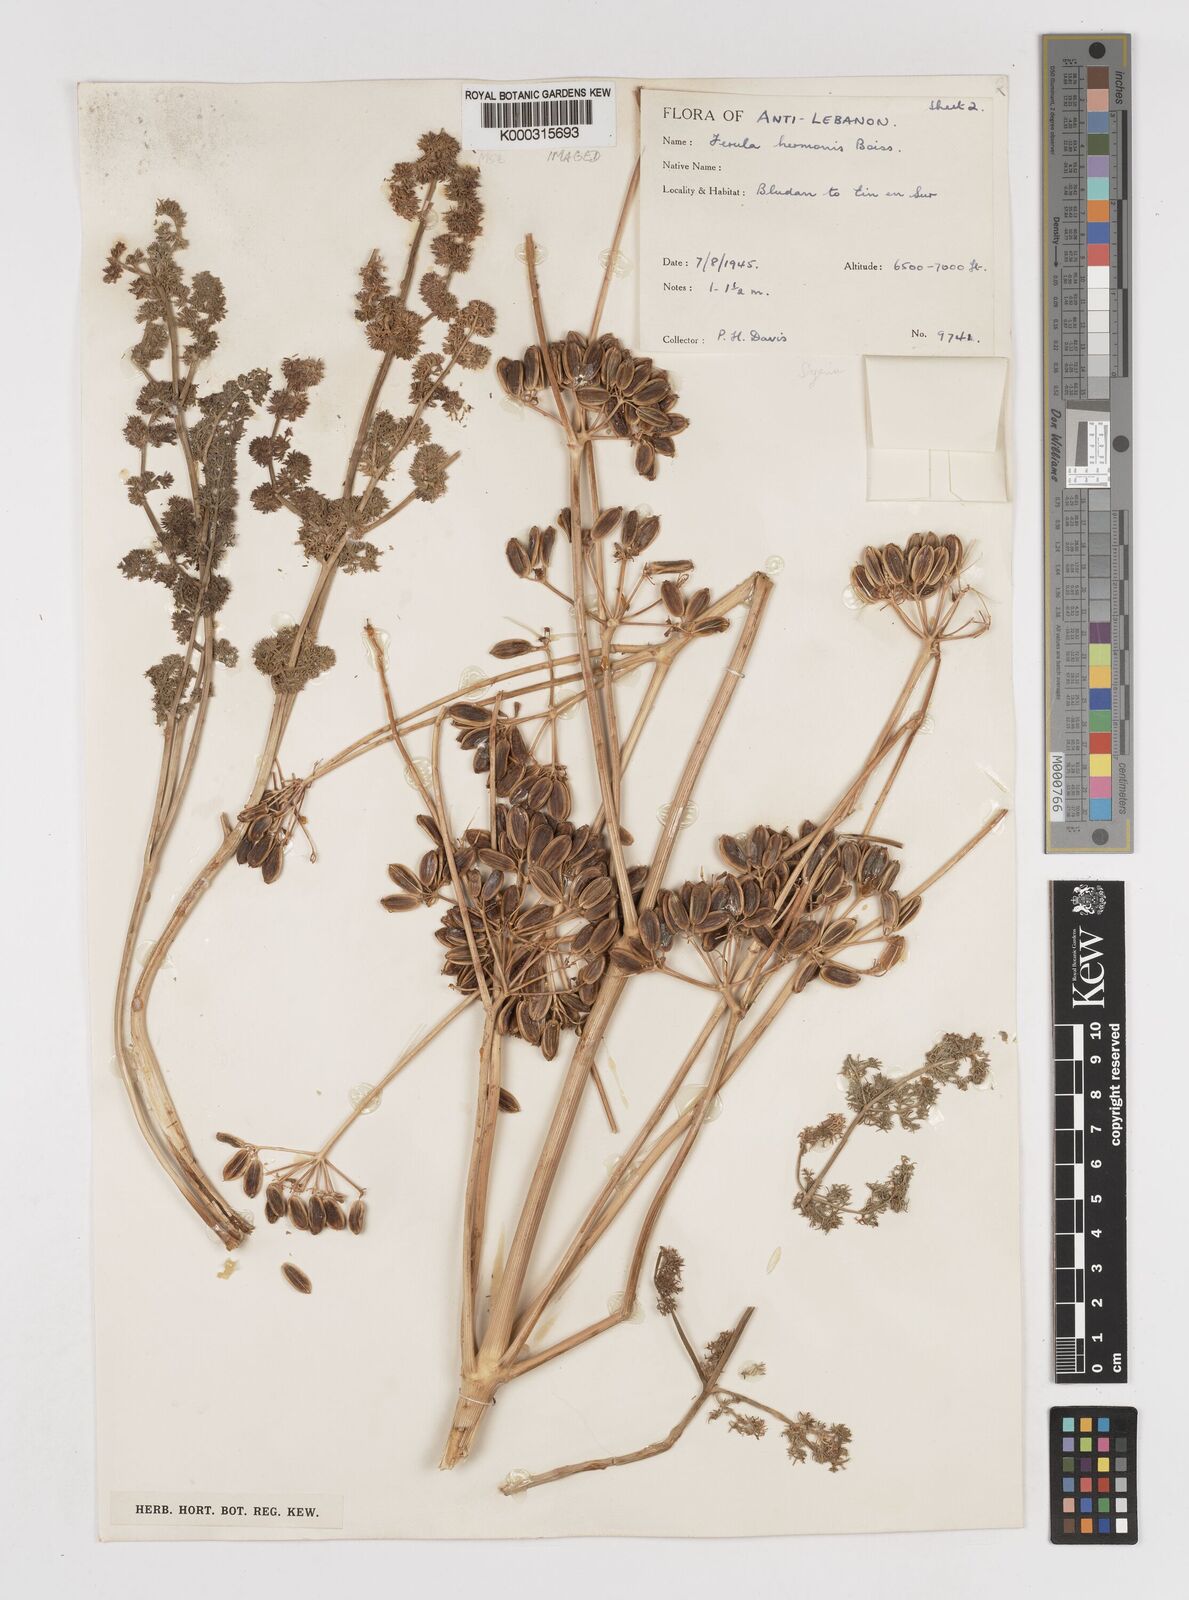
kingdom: Plantae
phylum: Tracheophyta
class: Magnoliopsida
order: Apiales
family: Apiaceae
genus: Ferula
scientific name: Ferula hermonis
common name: Hermon giant fennel
